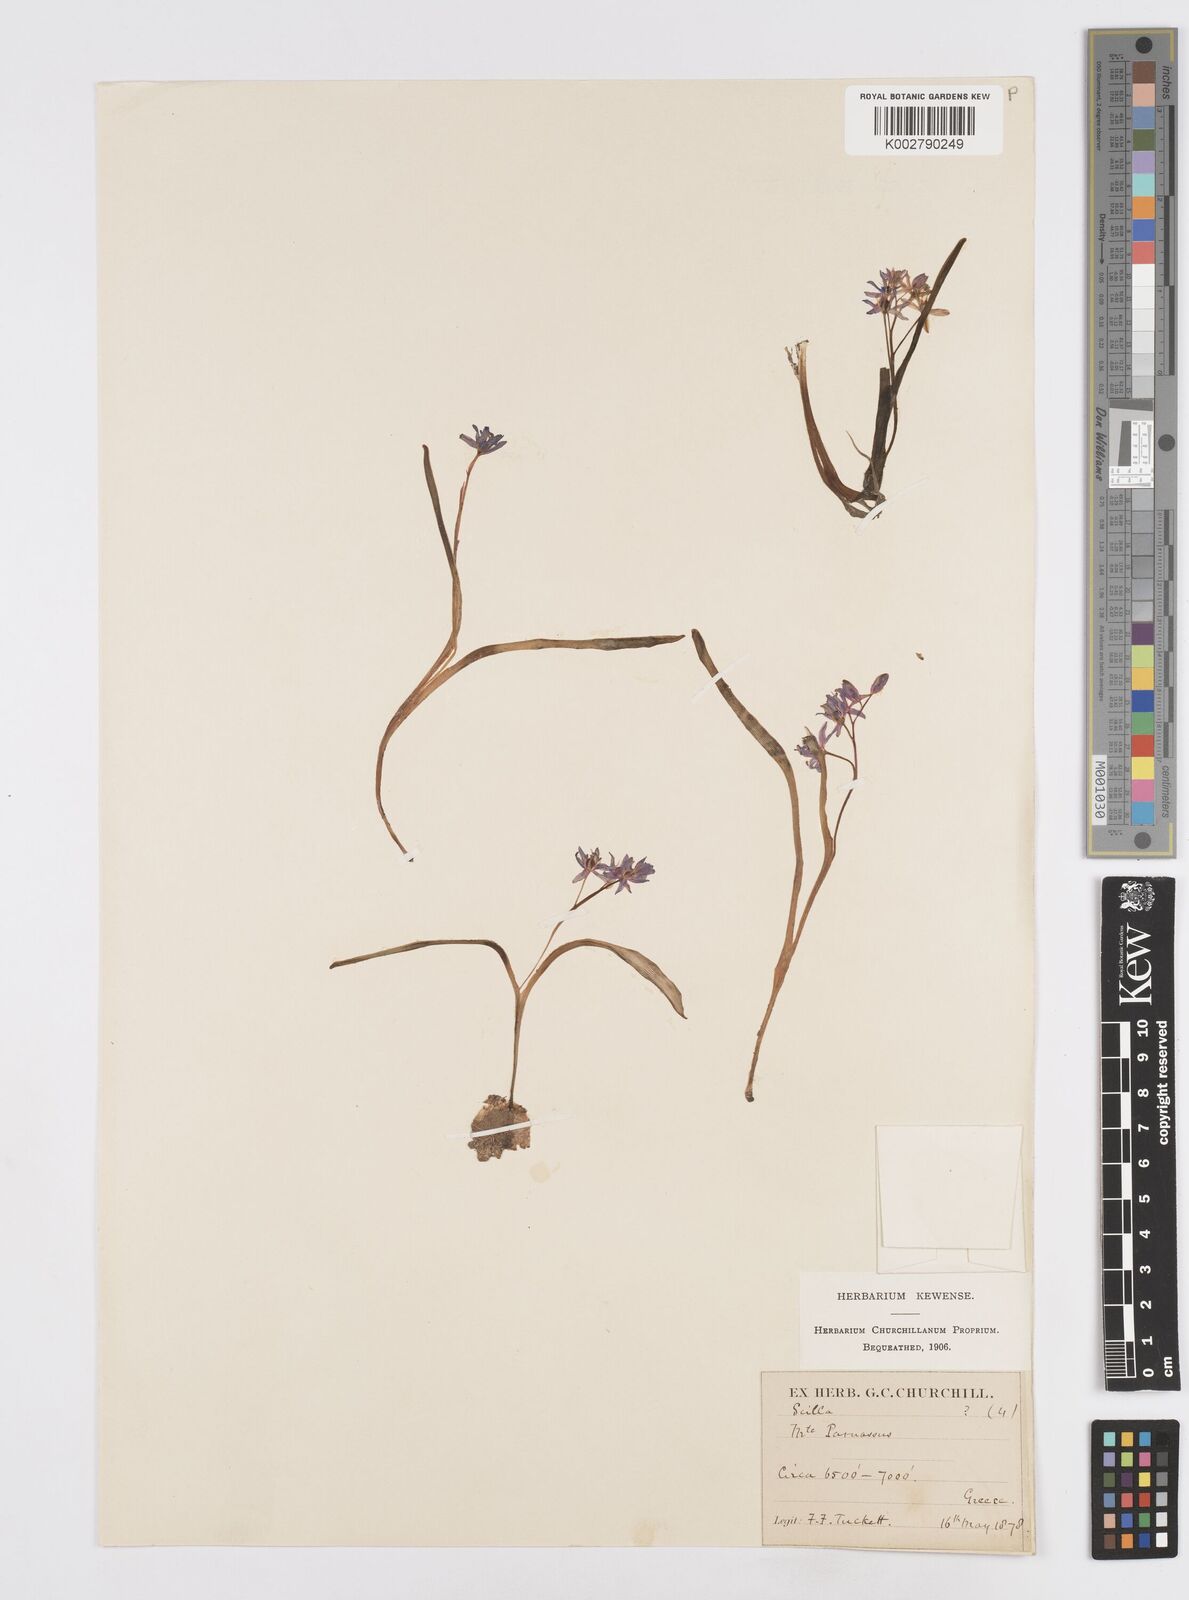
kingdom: Plantae
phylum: Tracheophyta
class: Liliopsida
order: Asparagales
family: Asparagaceae
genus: Scilla
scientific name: Scilla bifolia
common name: Alpine squill
